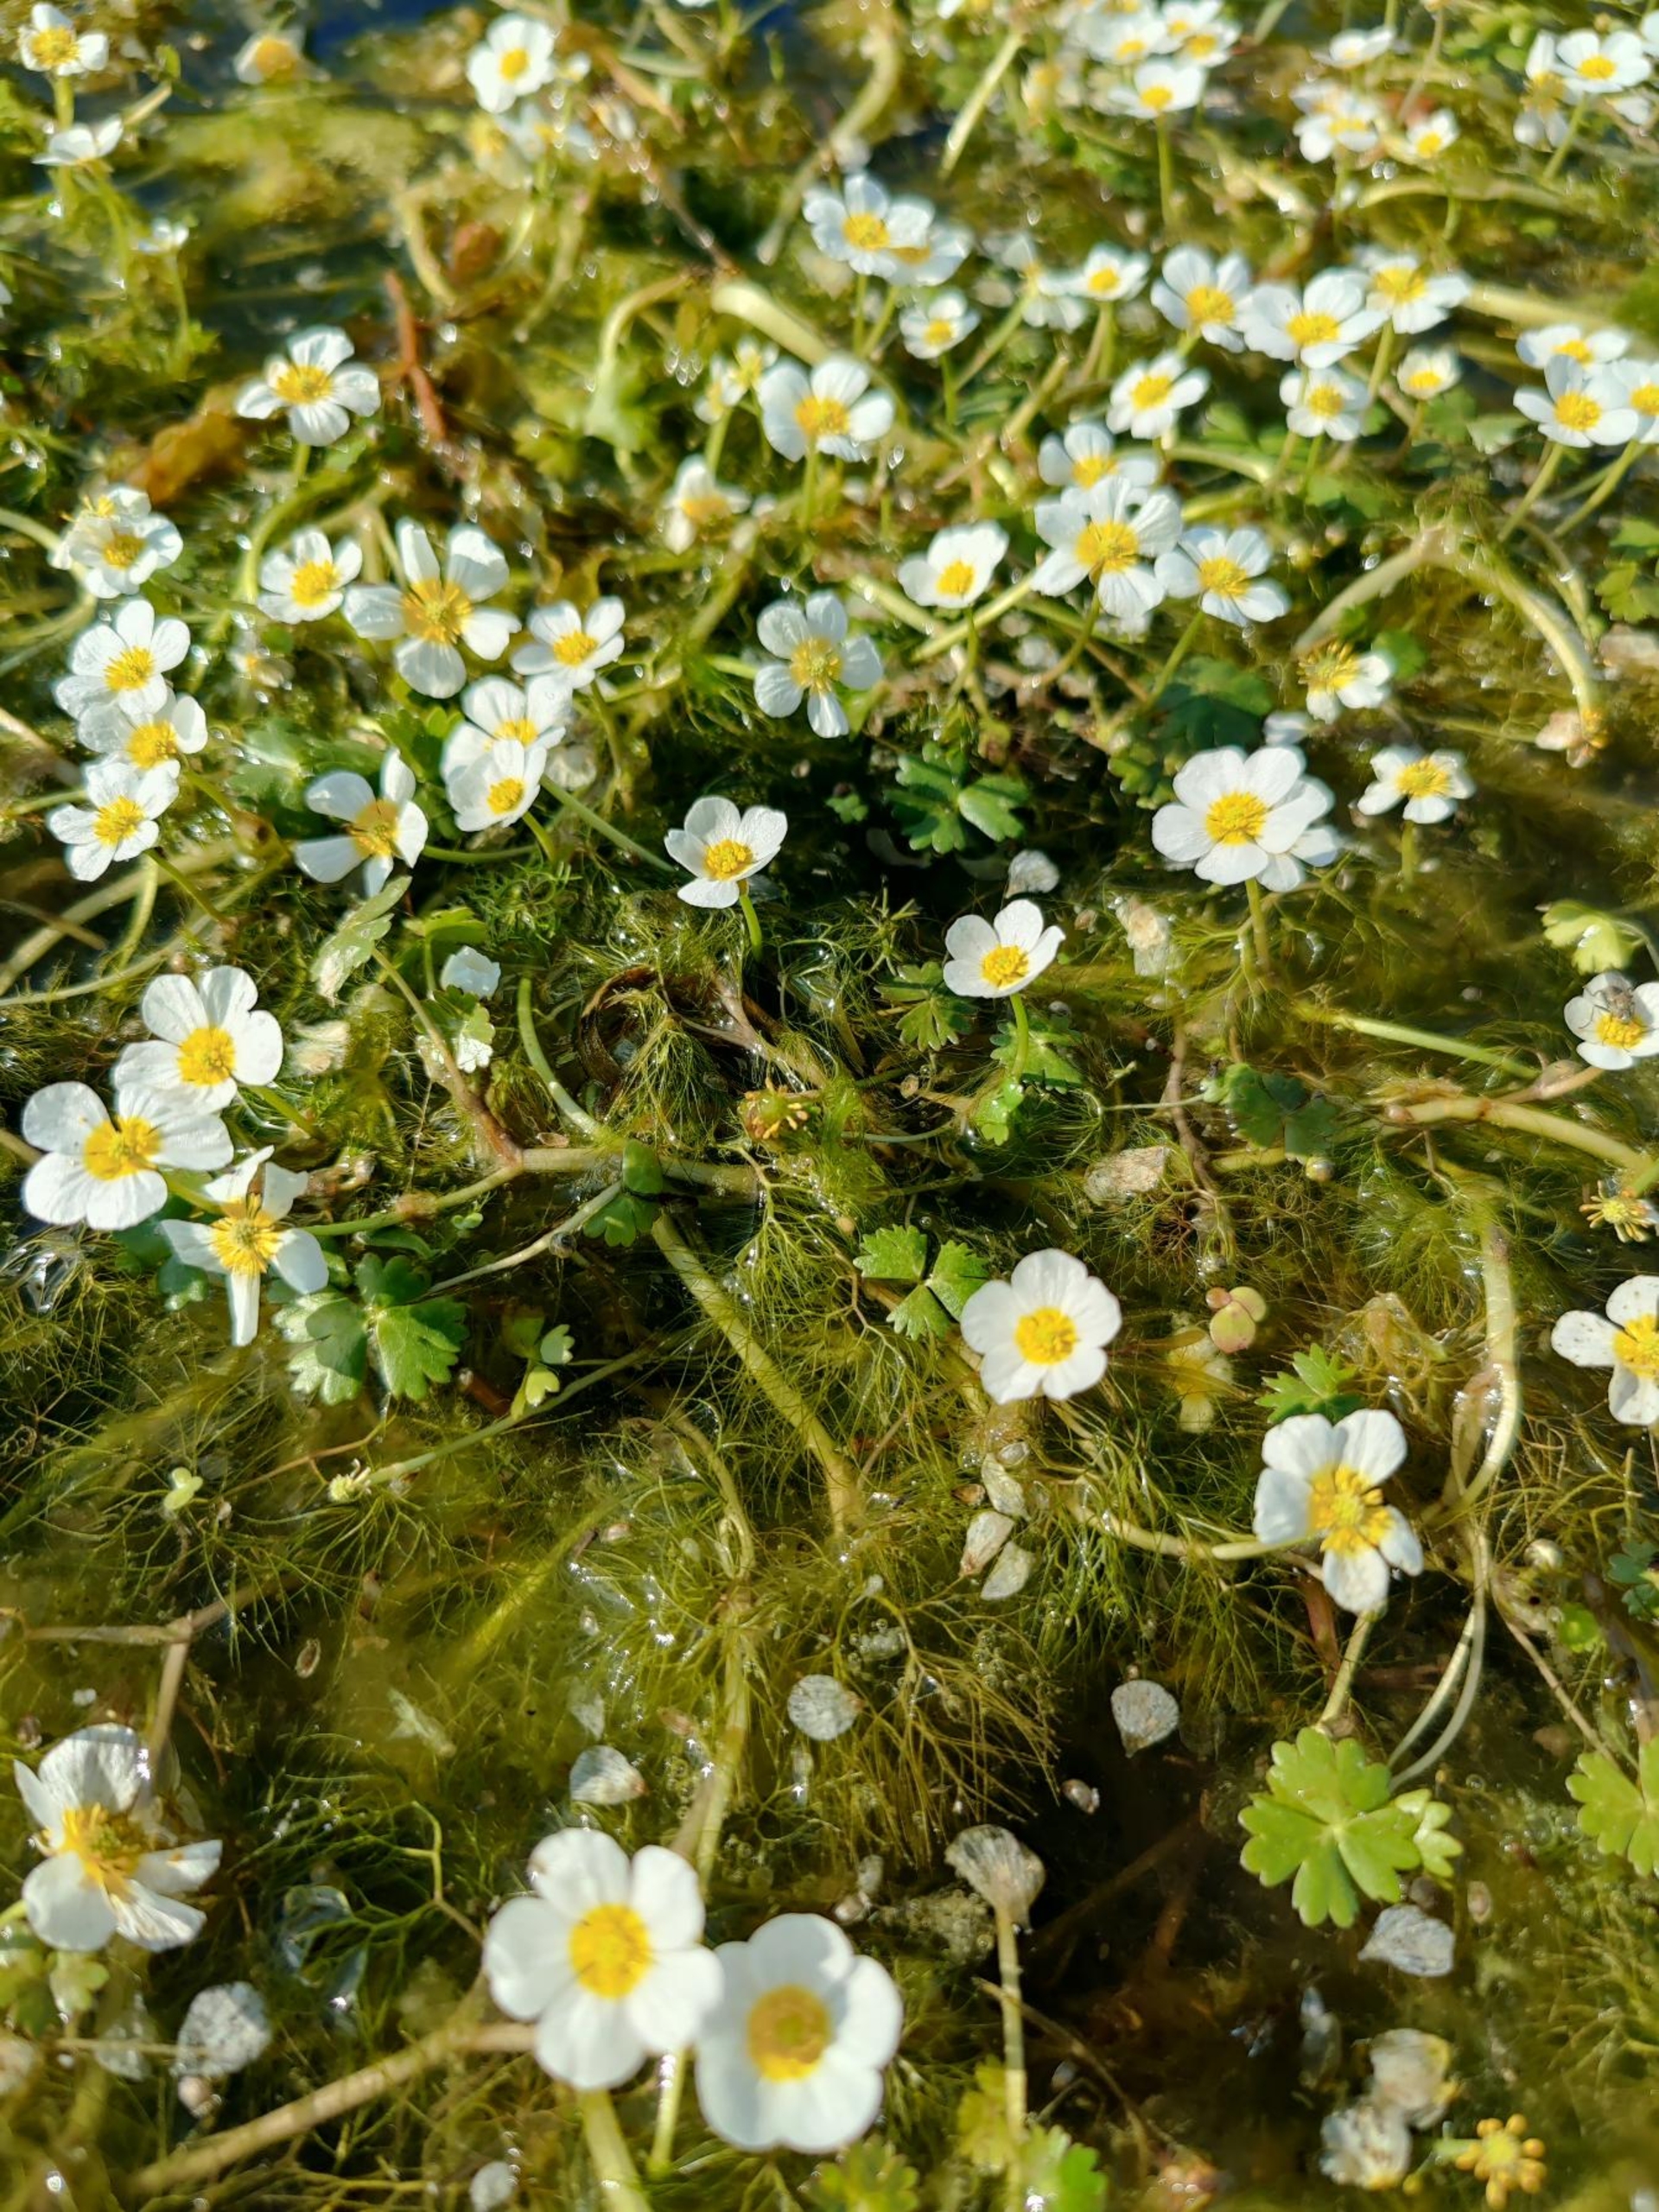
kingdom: Plantae
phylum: Tracheophyta
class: Magnoliopsida
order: Ranunculales
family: Ranunculaceae
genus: Ranunculus
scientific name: Ranunculus aquatilis
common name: Almindelig vandranunkel (varietet)
